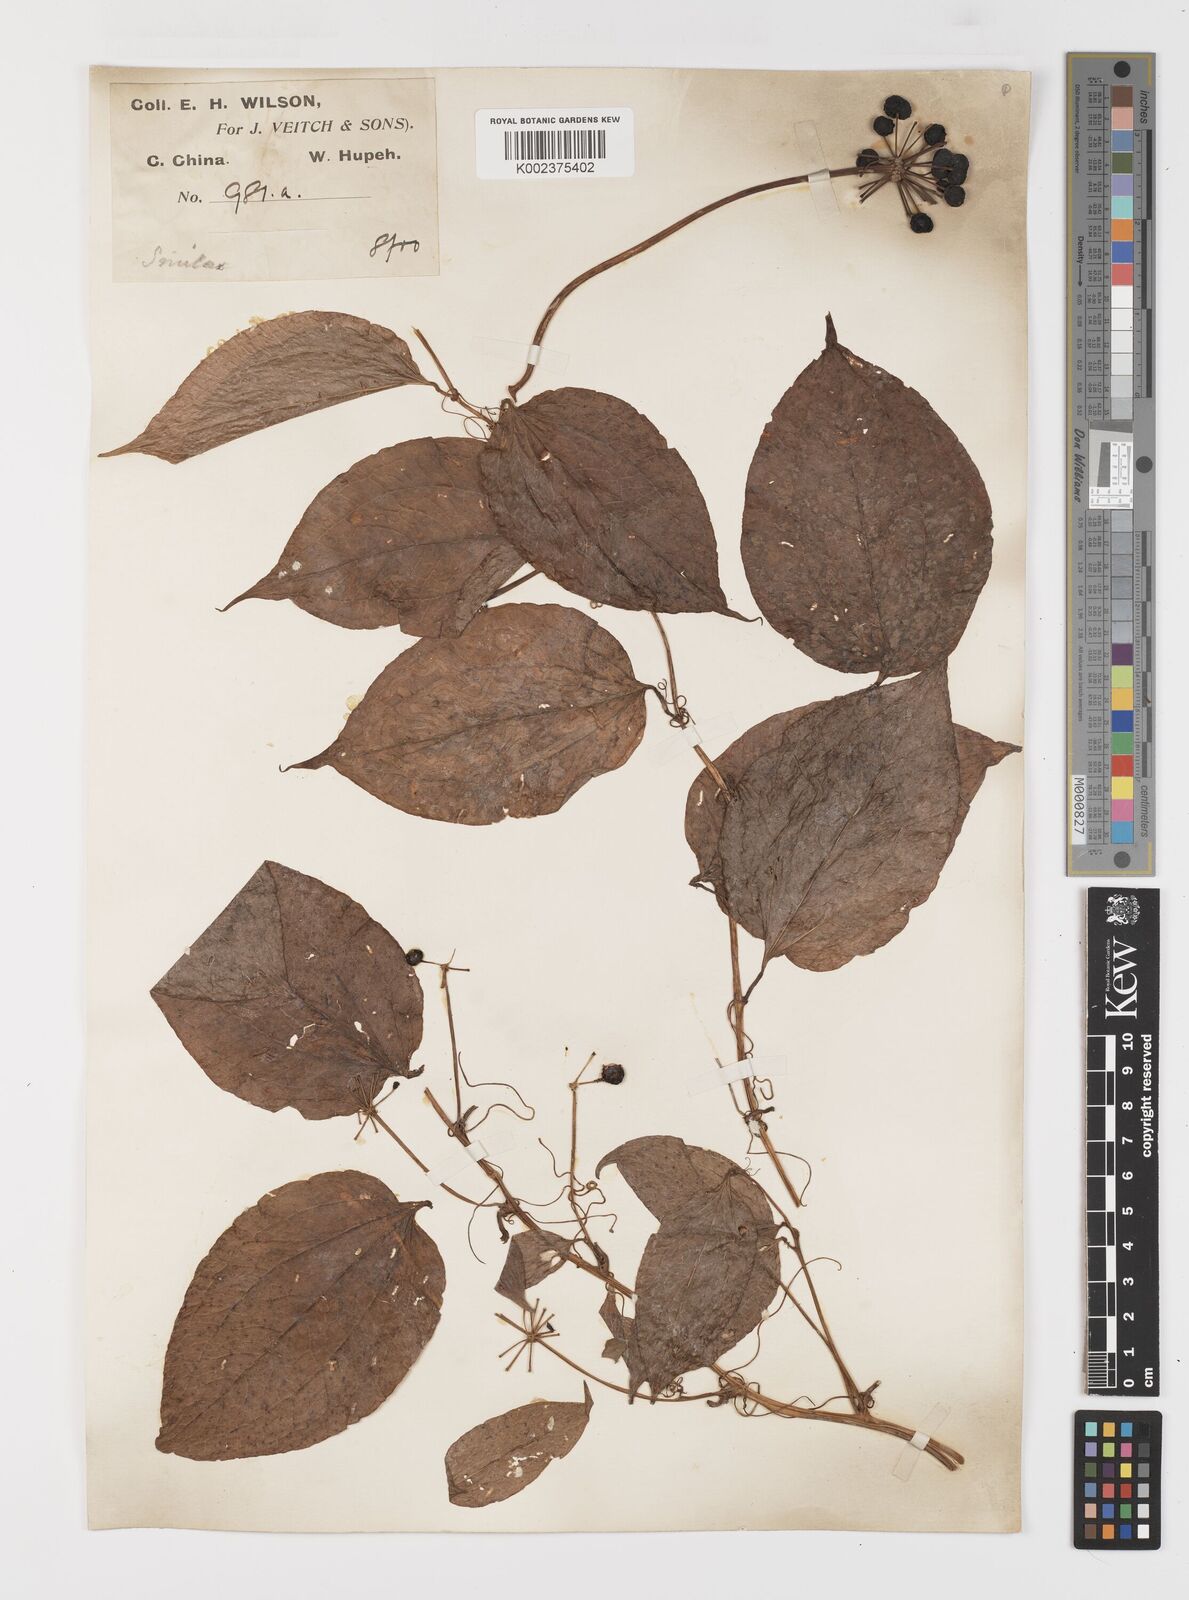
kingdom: Plantae
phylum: Tracheophyta
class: Liliopsida
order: Liliales
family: Smilacaceae
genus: Smilax
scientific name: Smilax nipponica
